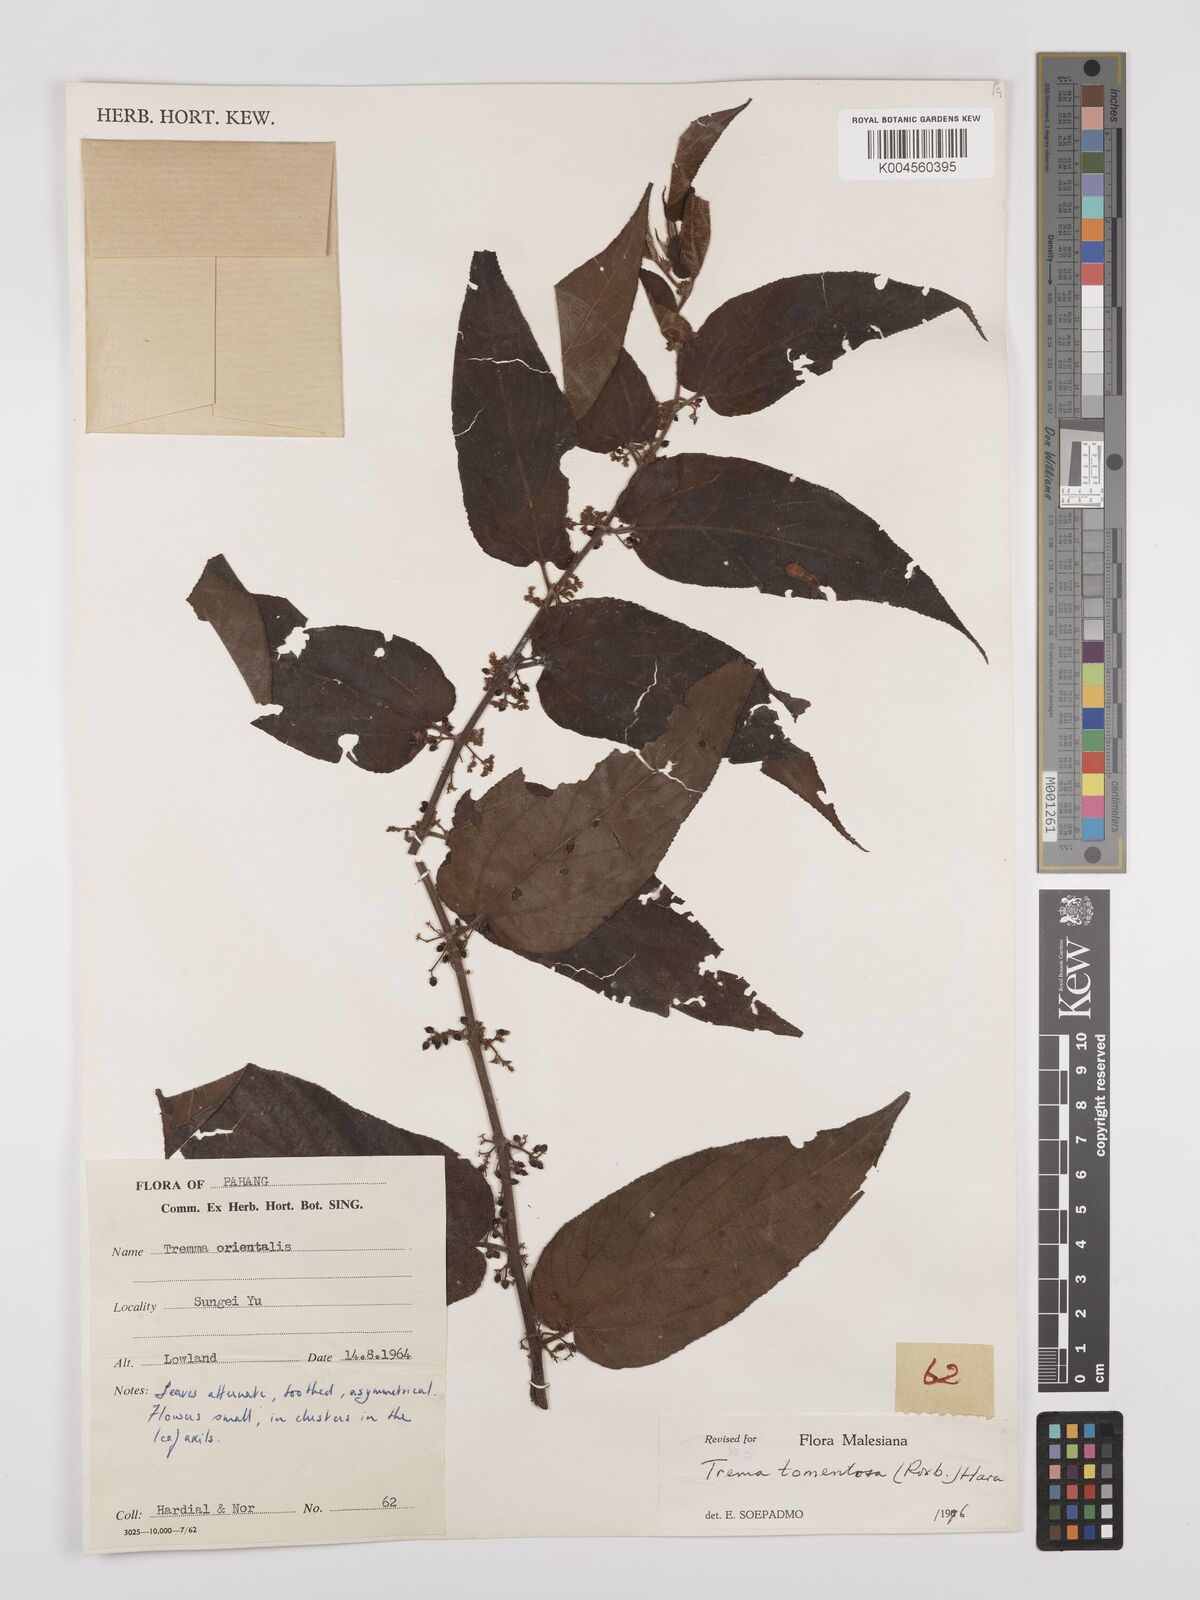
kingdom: Plantae
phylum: Tracheophyta
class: Magnoliopsida
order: Rosales
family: Cannabaceae
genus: Trema
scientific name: Trema tomentosum
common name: Peach-leaf-poisonbush
